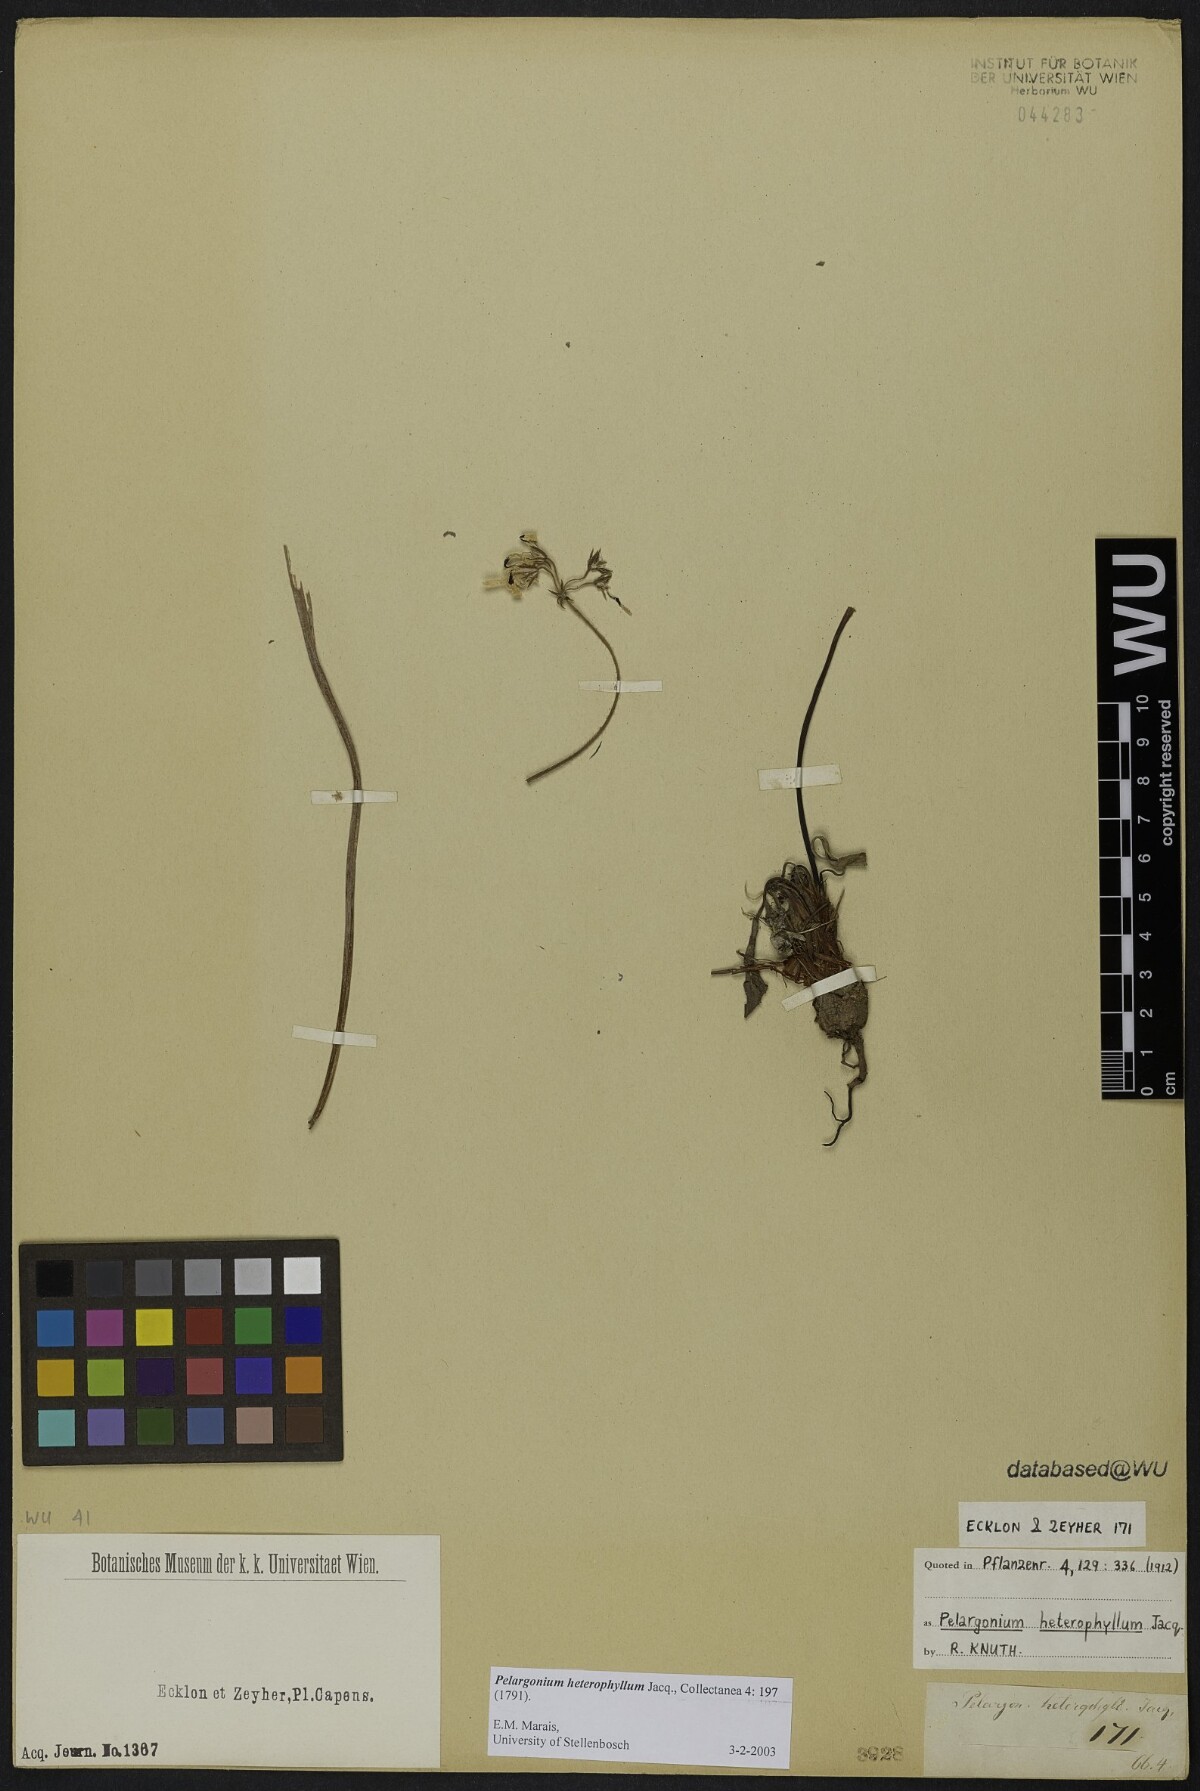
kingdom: Plantae
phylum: Tracheophyta
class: Magnoliopsida
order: Geraniales
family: Geraniaceae
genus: Pelargonium
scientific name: Pelargonium heterophyllum
